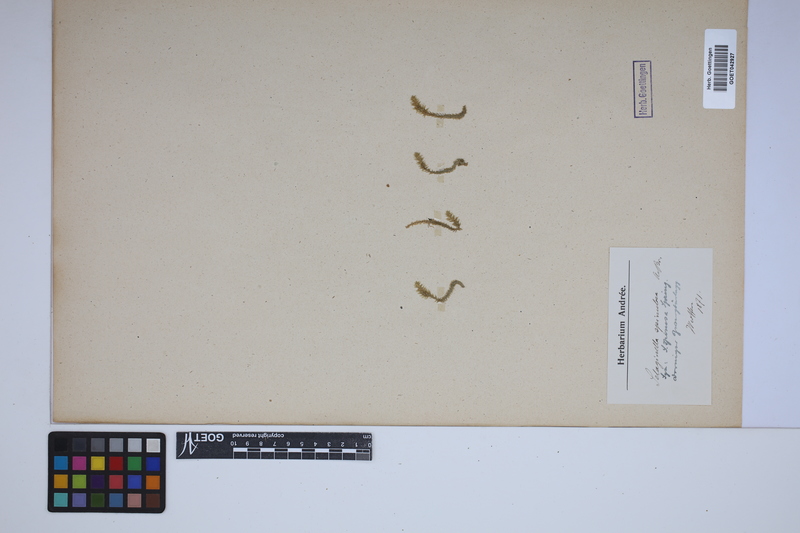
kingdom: Plantae
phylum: Tracheophyta
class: Lycopodiopsida
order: Selaginellales
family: Selaginellaceae
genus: Selaginella
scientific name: Selaginella selaginoides
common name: Prickly mountain-moss
